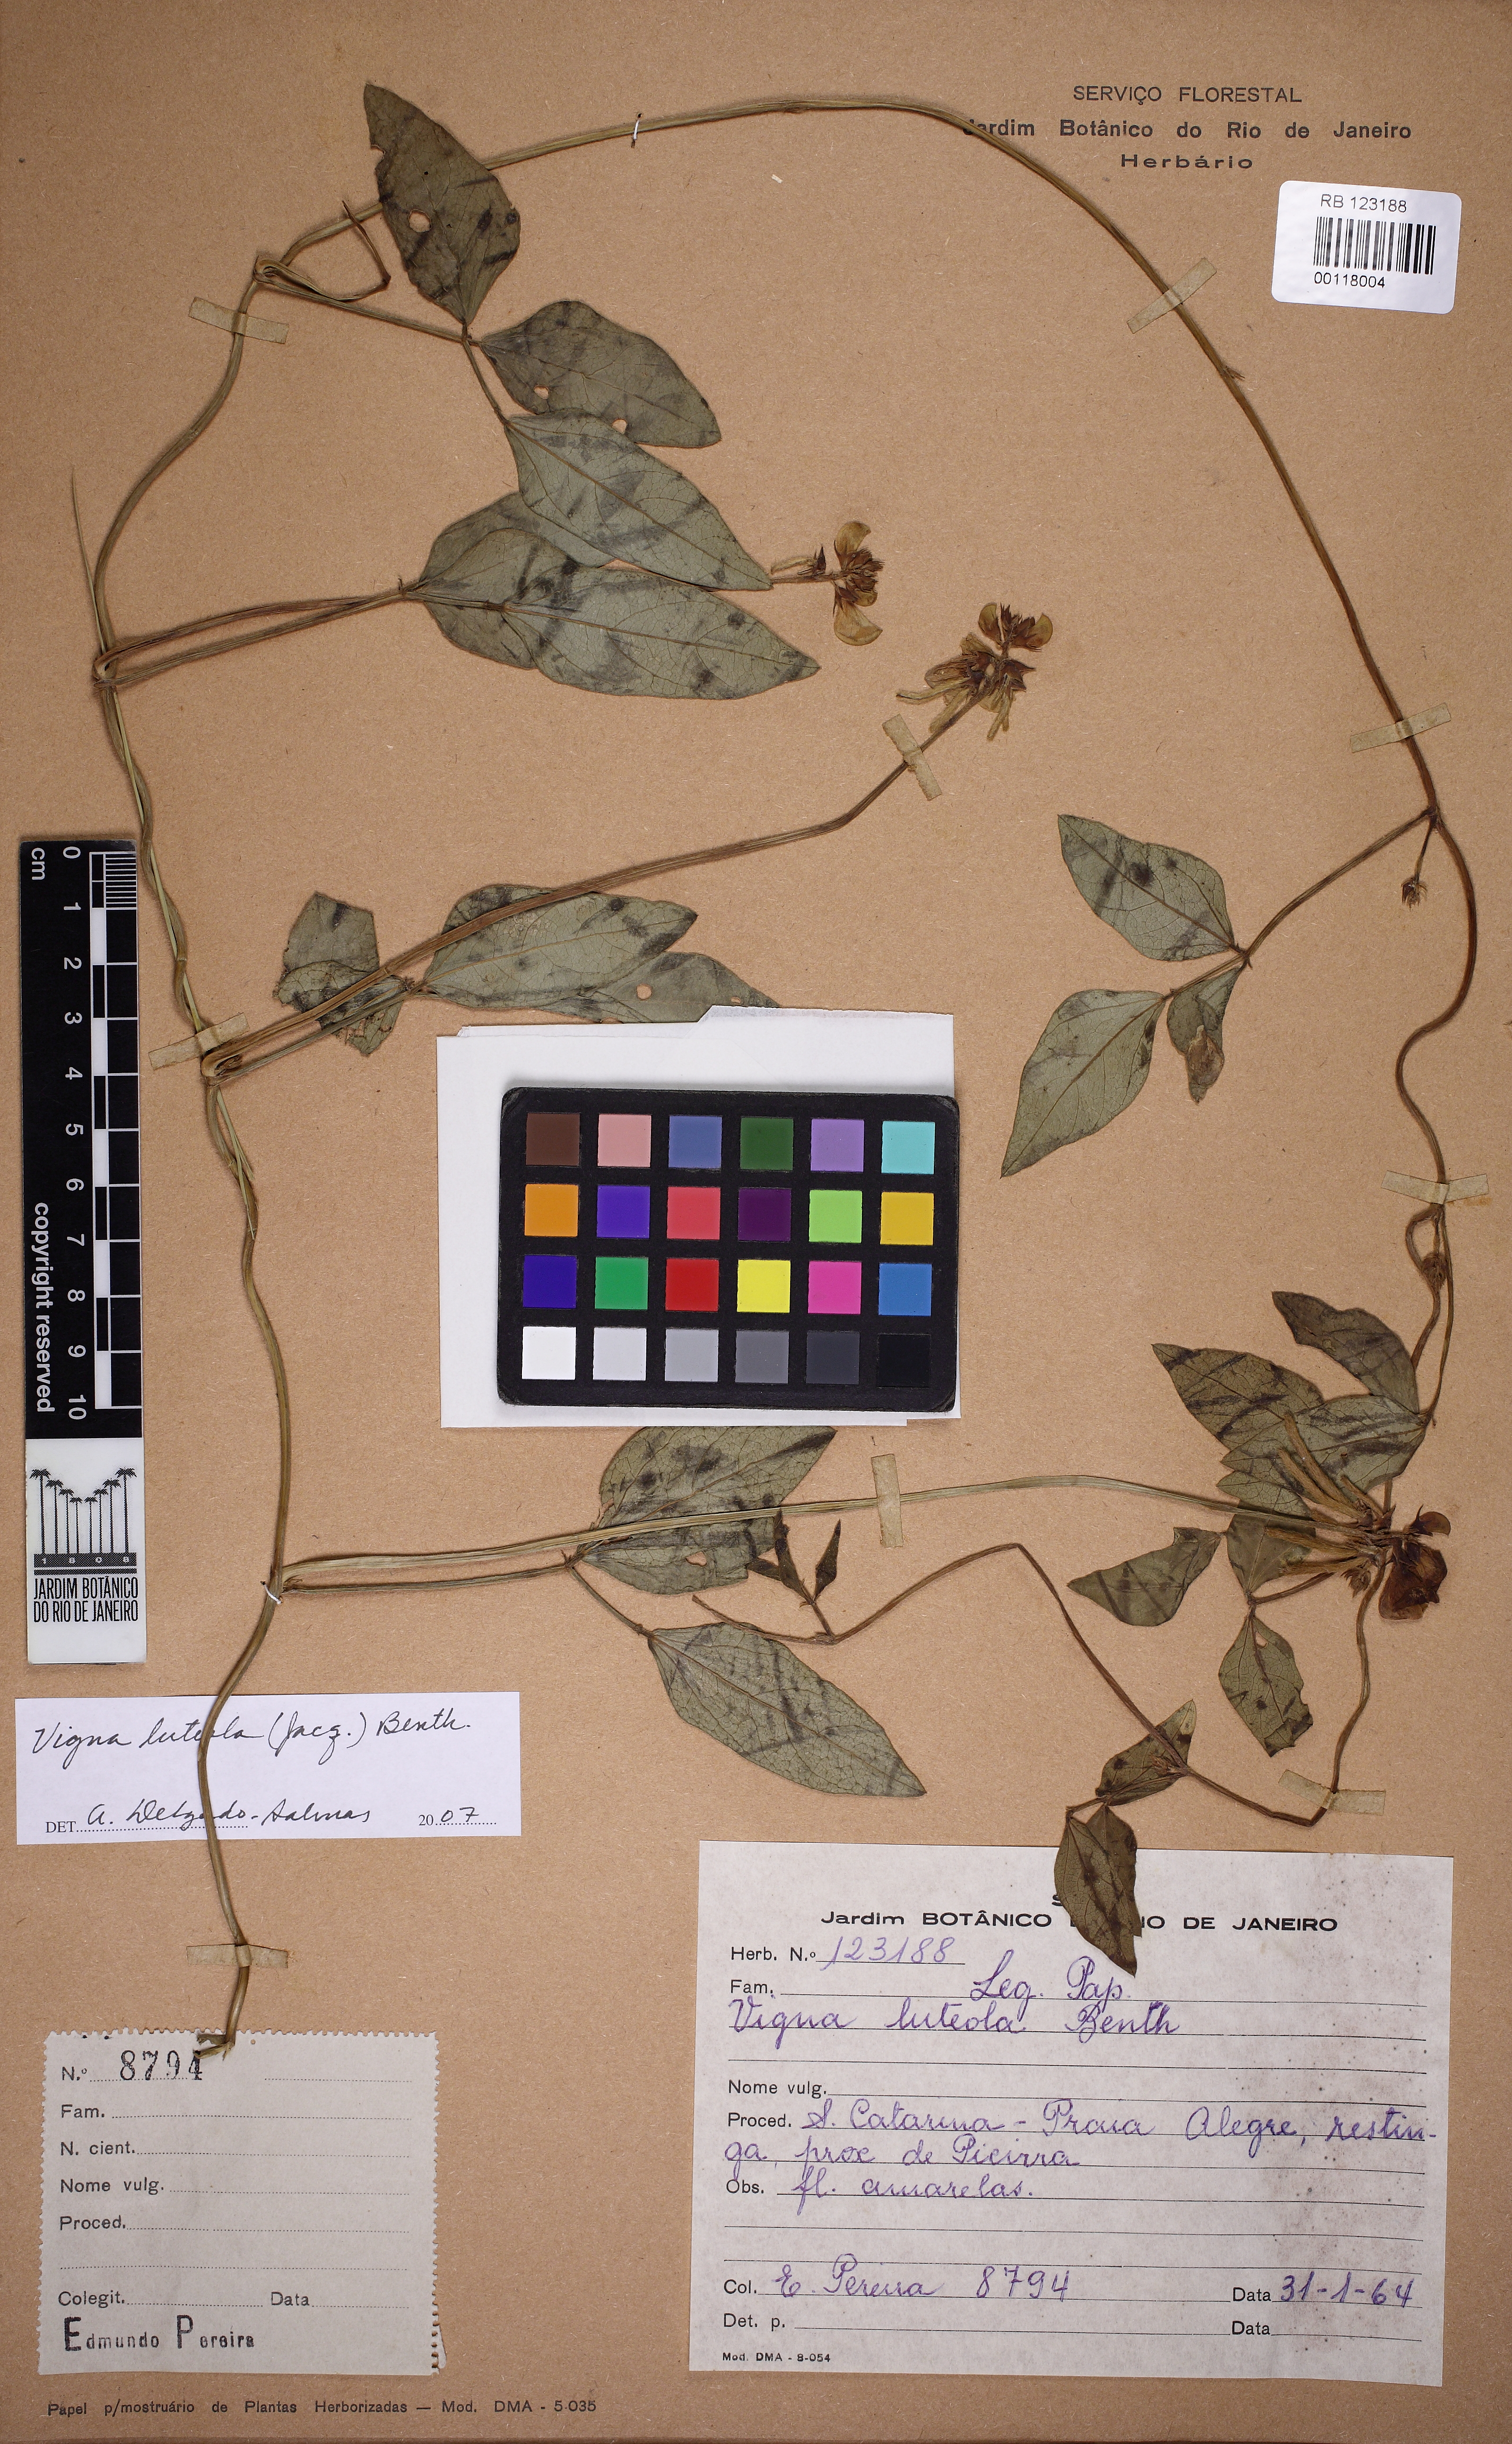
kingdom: Plantae
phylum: Tracheophyta
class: Magnoliopsida
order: Fabales
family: Fabaceae
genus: Vigna
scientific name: Vigna luteola
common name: Hairypod cowpea
